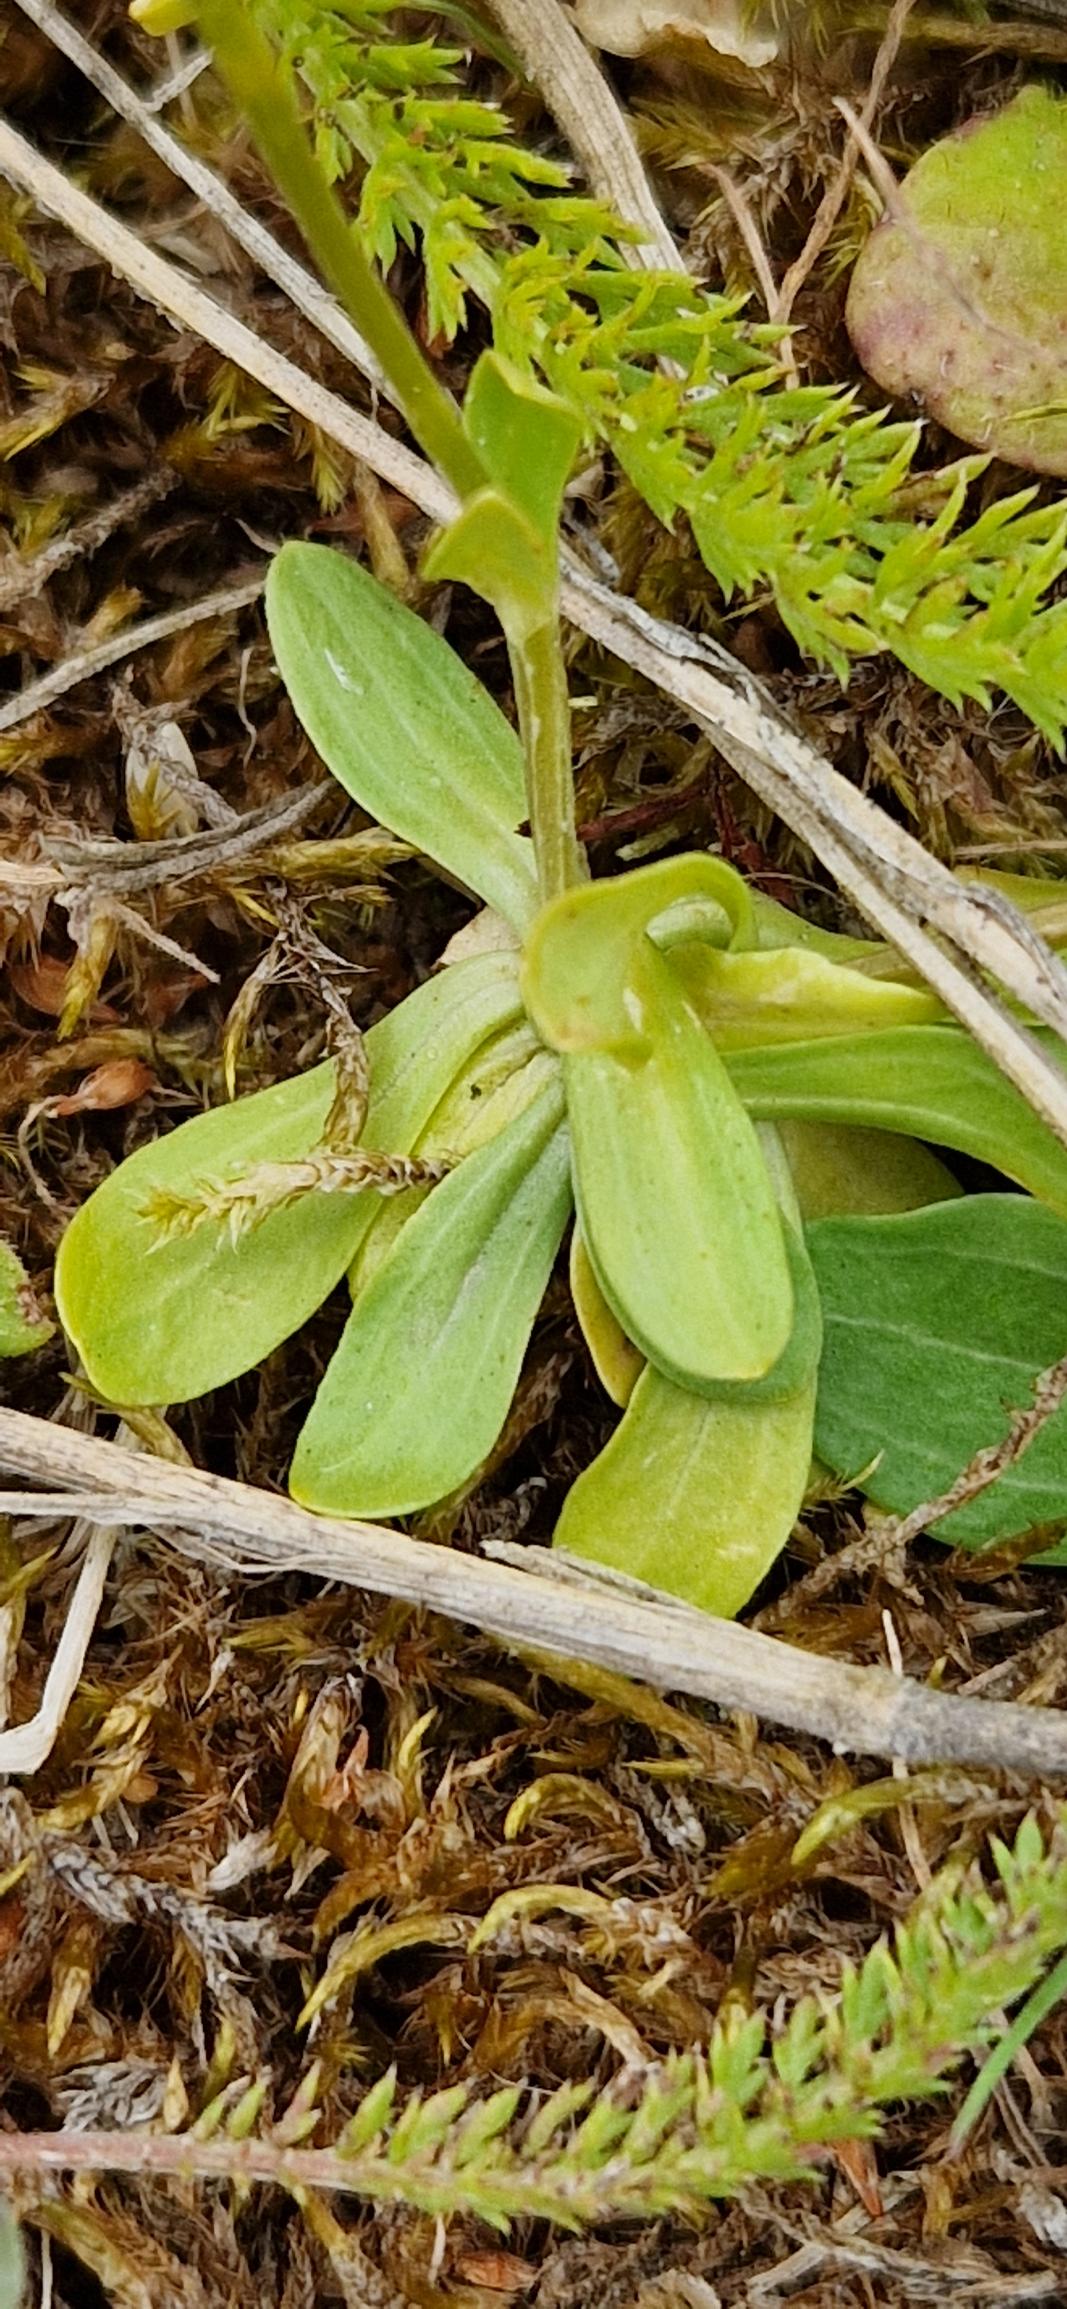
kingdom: Plantae
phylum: Tracheophyta
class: Magnoliopsida
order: Gentianales
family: Gentianaceae
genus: Centaurium
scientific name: Centaurium erythraea
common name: Mark-tusindgylden
